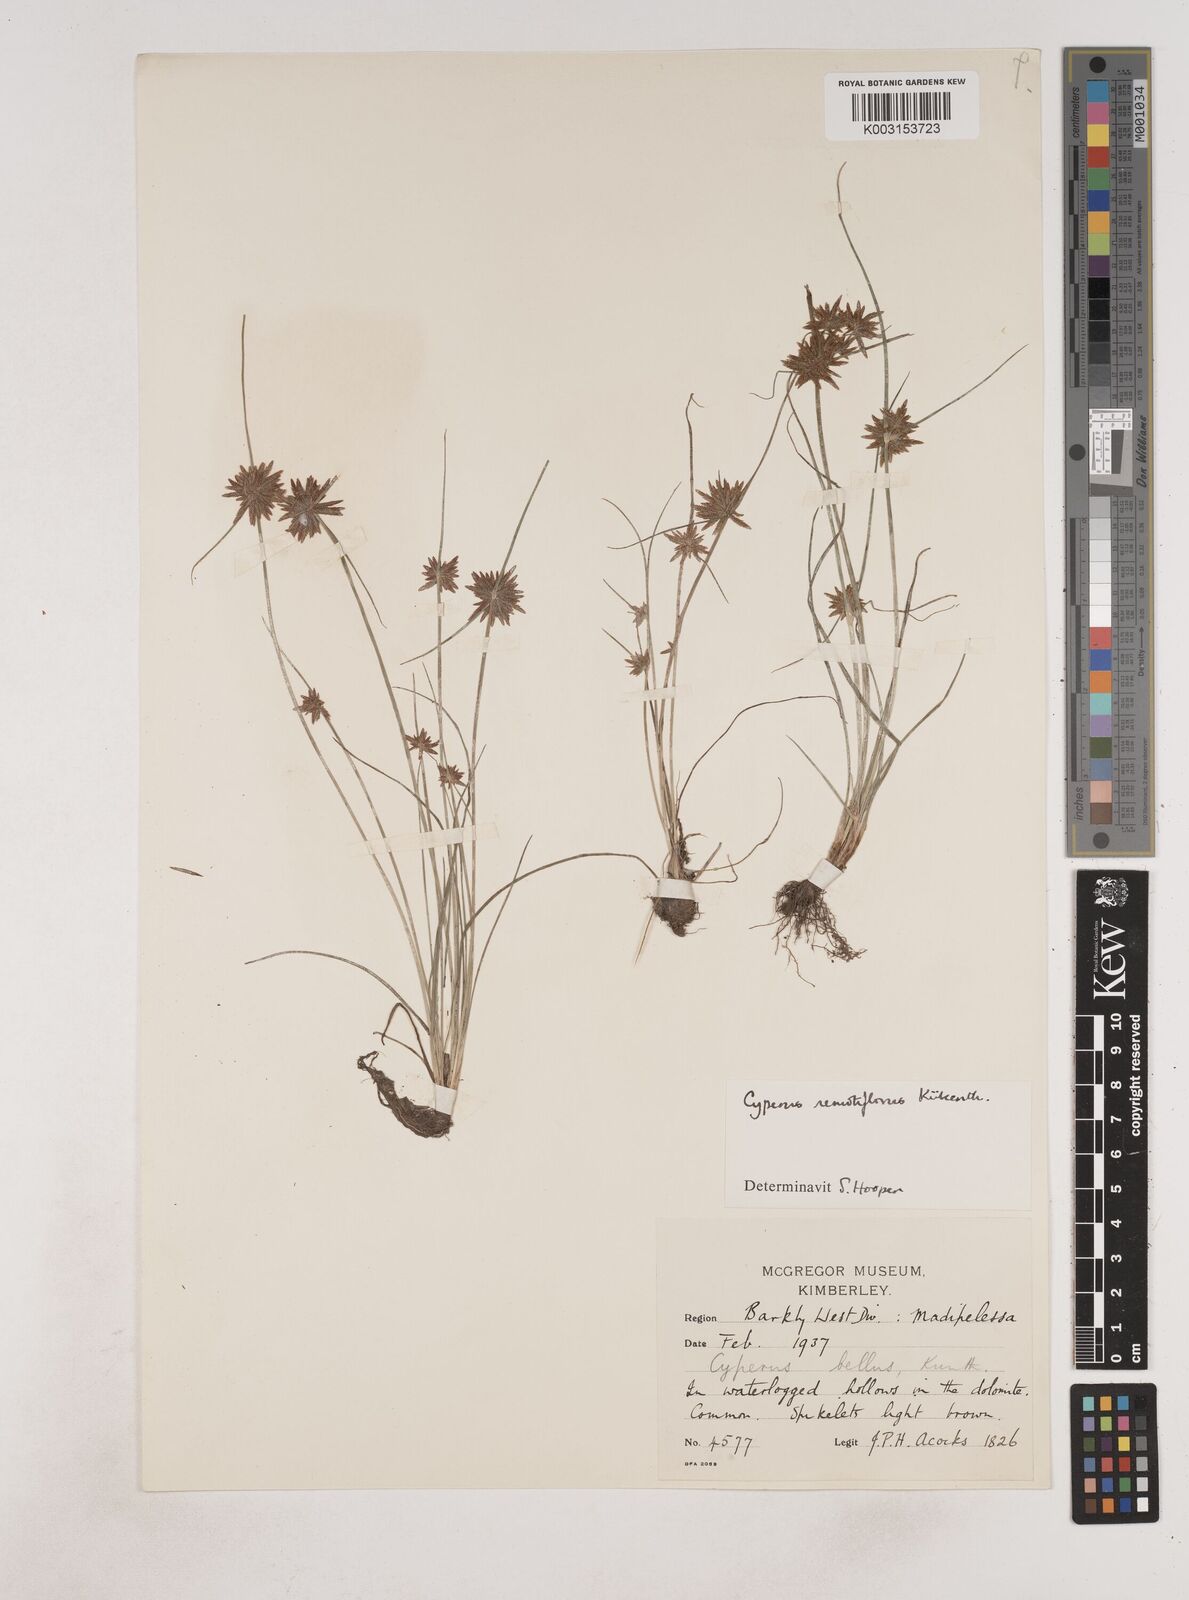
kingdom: Plantae
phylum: Tracheophyta
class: Liliopsida
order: Poales
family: Cyperaceae
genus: Cyperus
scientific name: Cyperus remotiflorus
